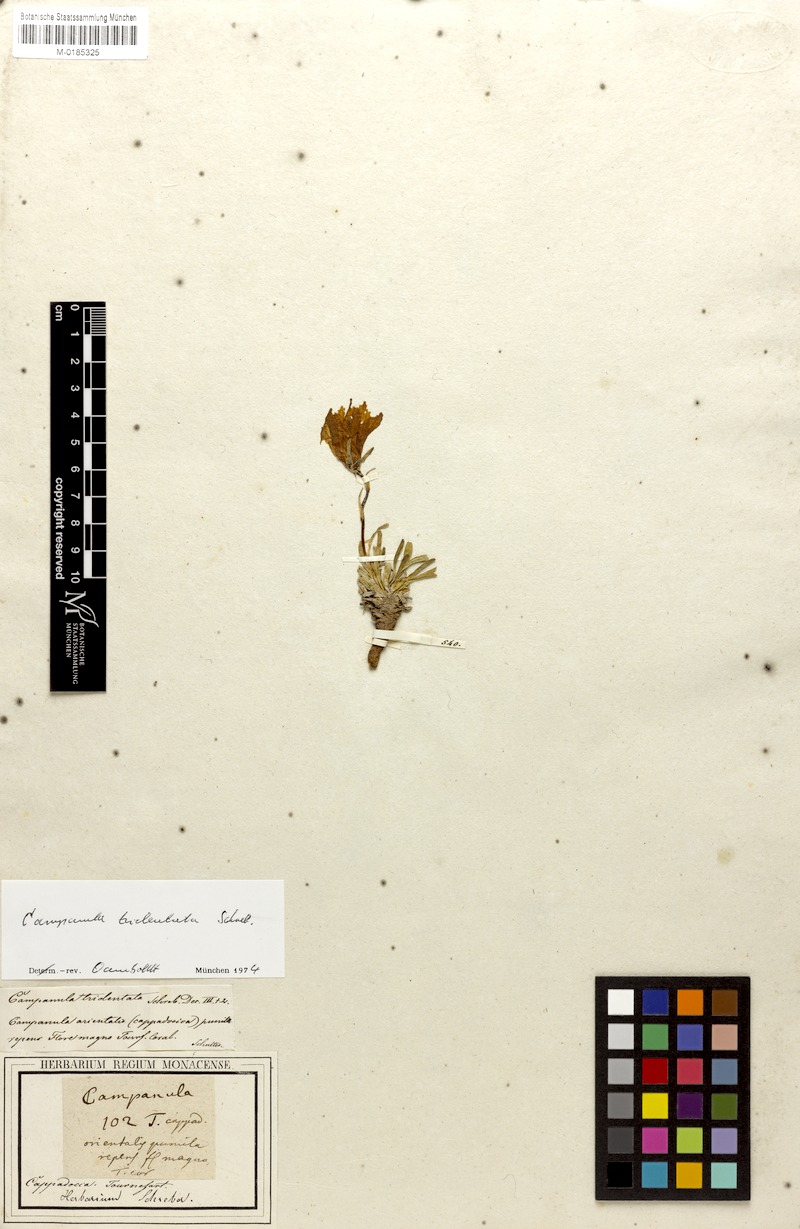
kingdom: Plantae
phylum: Tracheophyta
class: Magnoliopsida
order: Asterales
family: Campanulaceae
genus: Campanula
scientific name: Campanula tridentata
